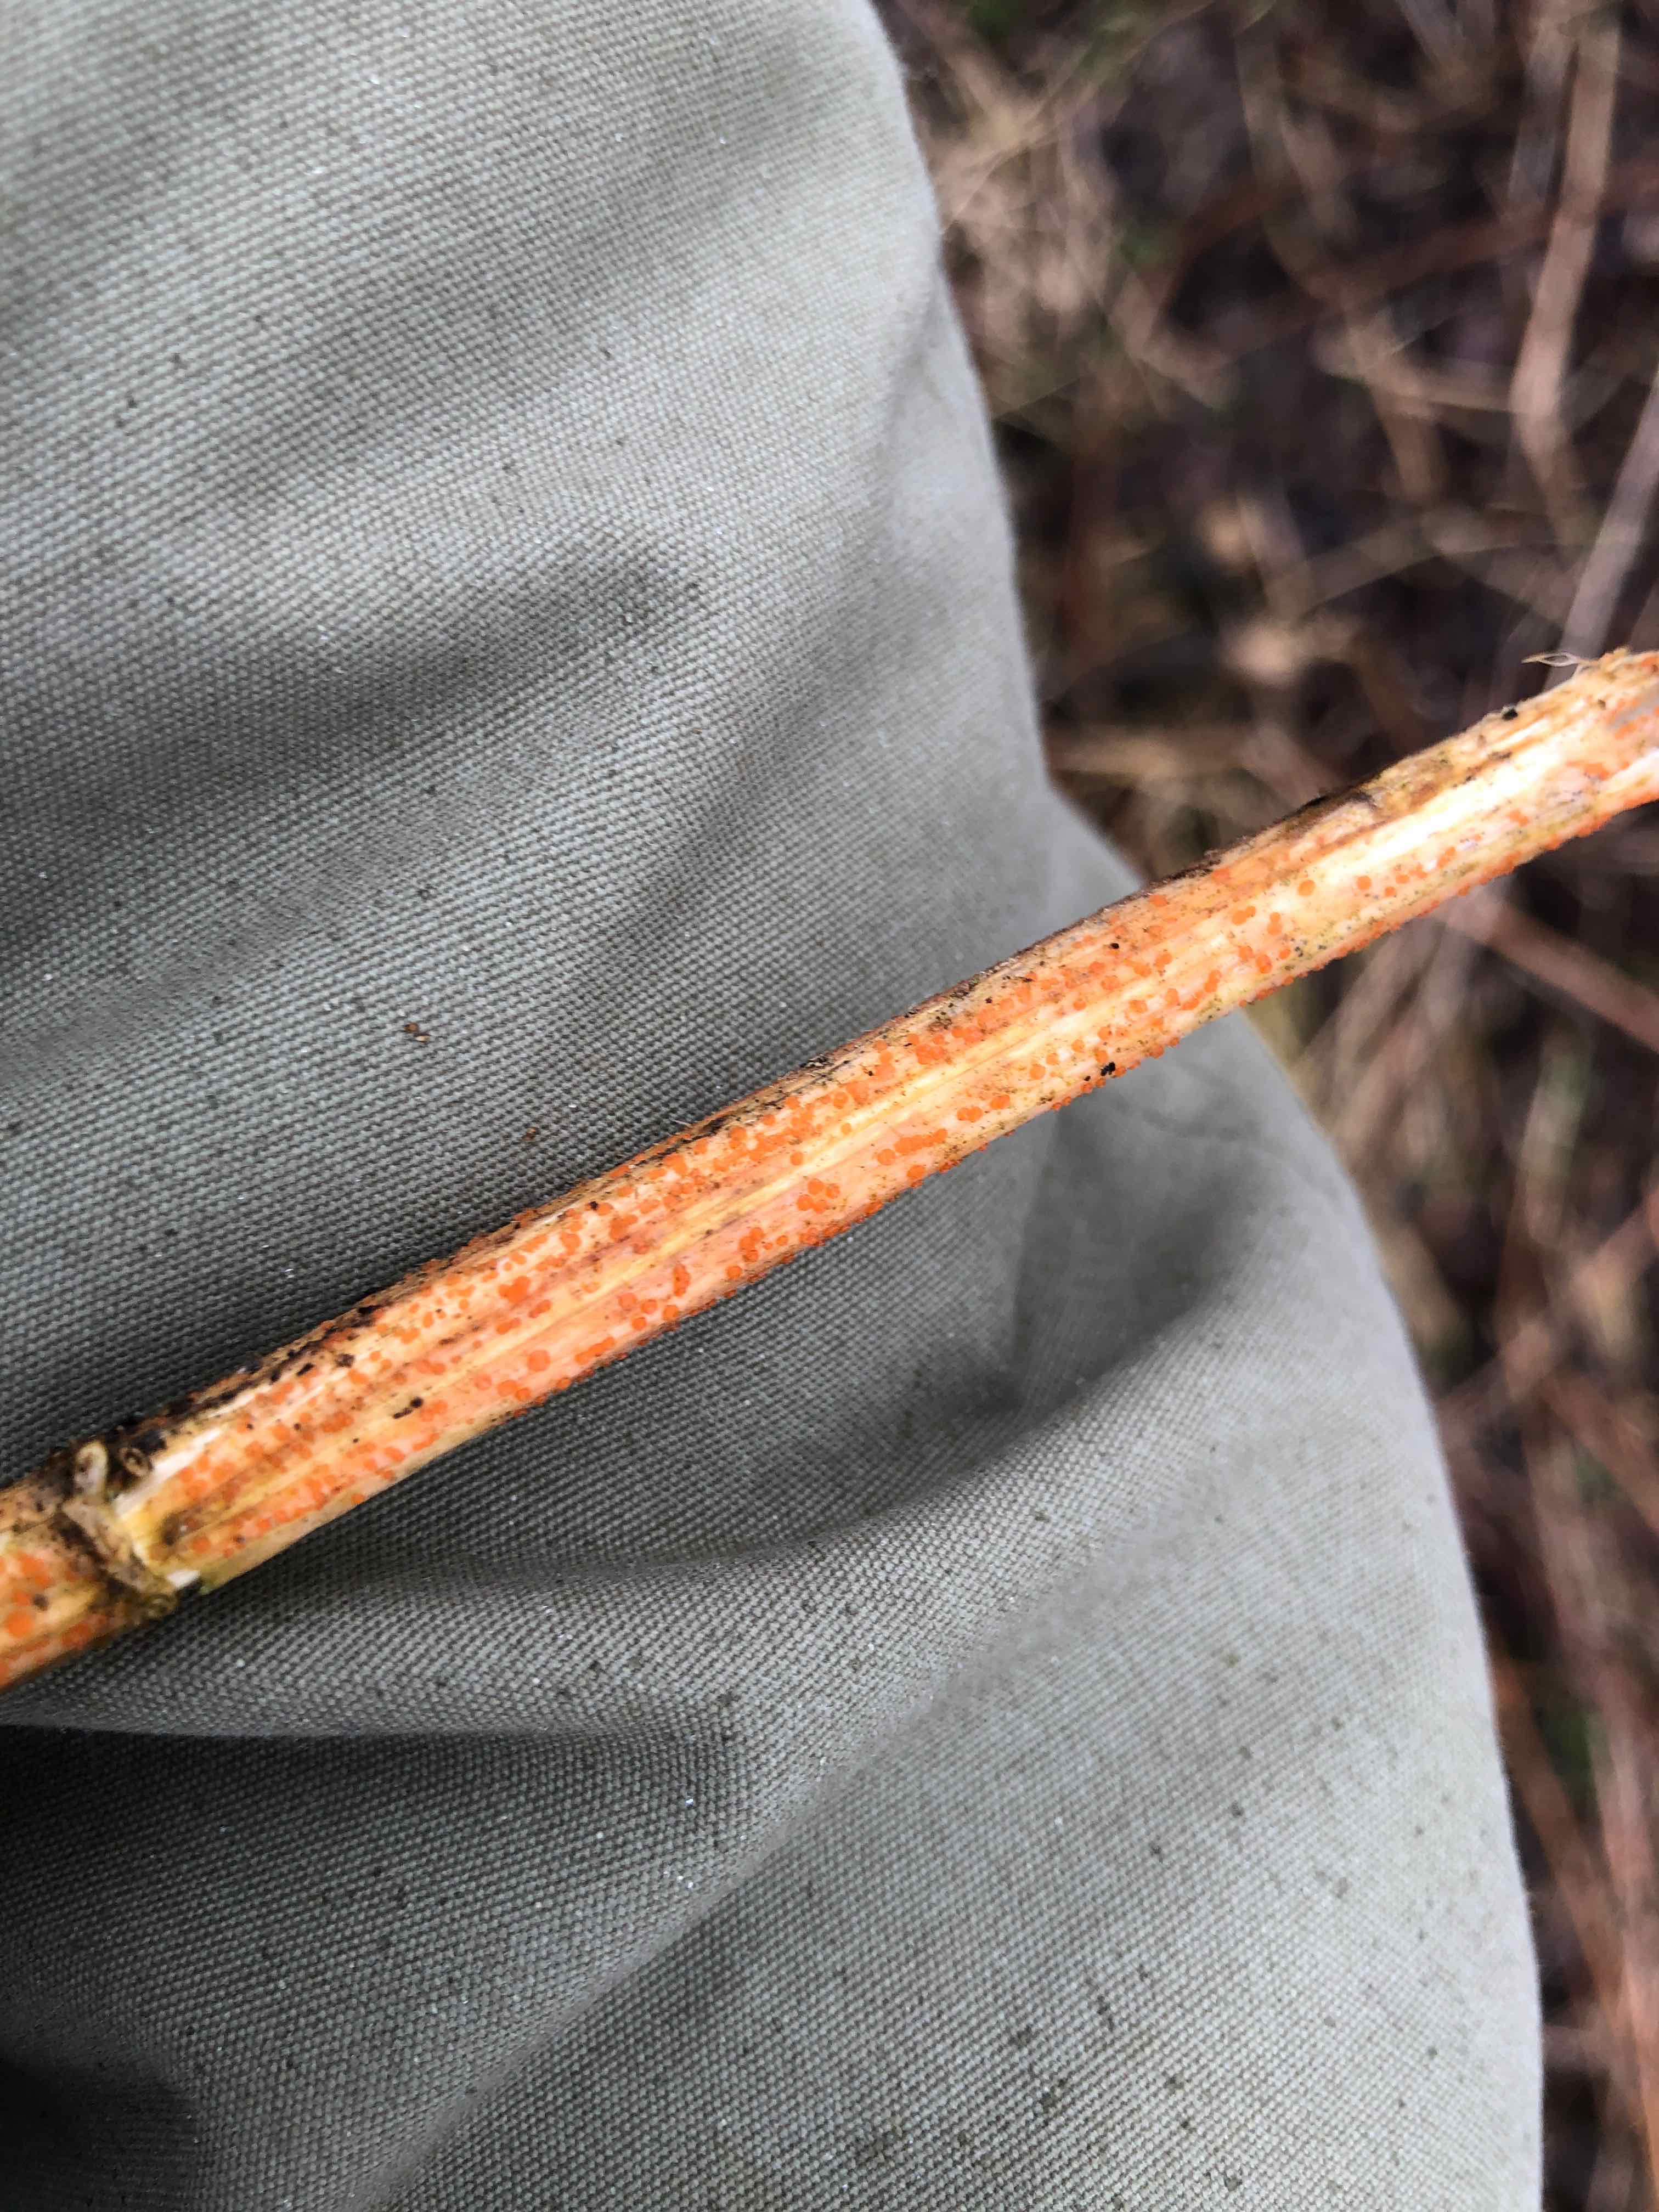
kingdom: Fungi
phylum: Ascomycota
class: Leotiomycetes
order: Helotiales
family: Calloriaceae
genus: Calloria
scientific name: Calloria urticae
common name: nælde-orangeskive
